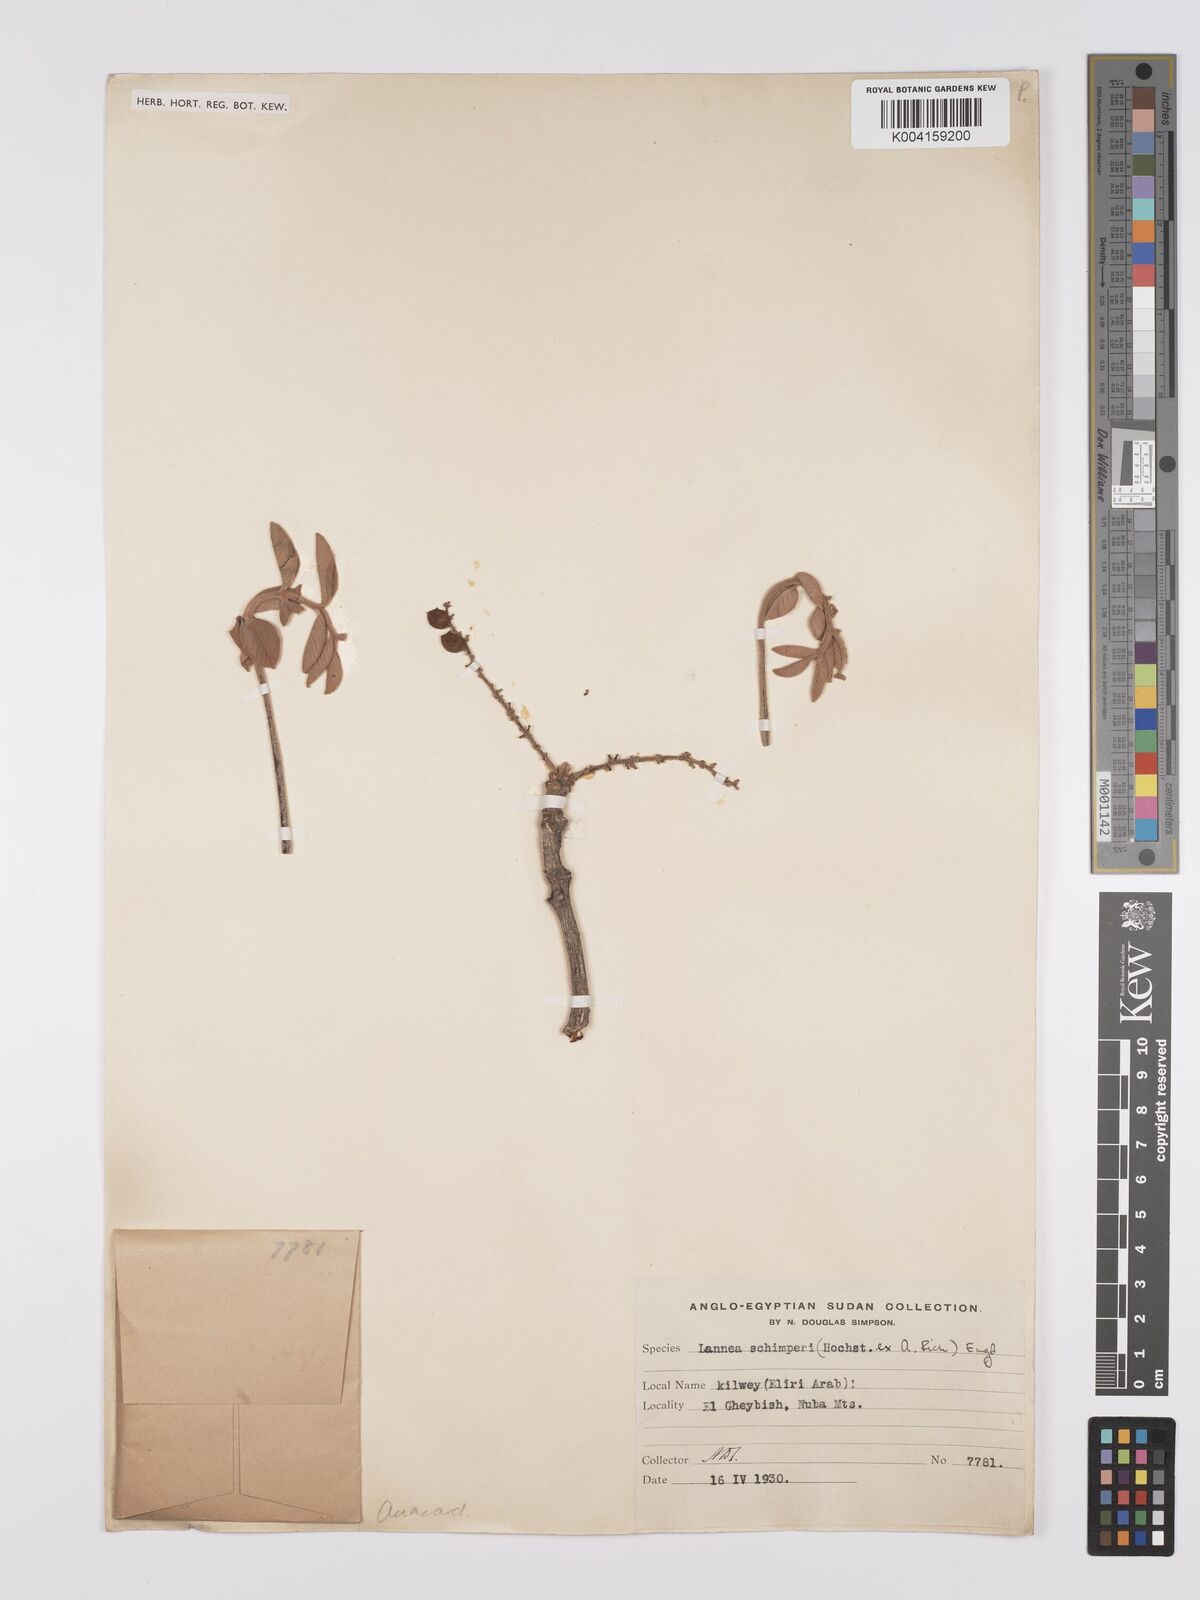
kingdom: Plantae
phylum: Tracheophyta
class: Magnoliopsida
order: Sapindales
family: Anacardiaceae
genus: Lannea
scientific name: Lannea schimperi
